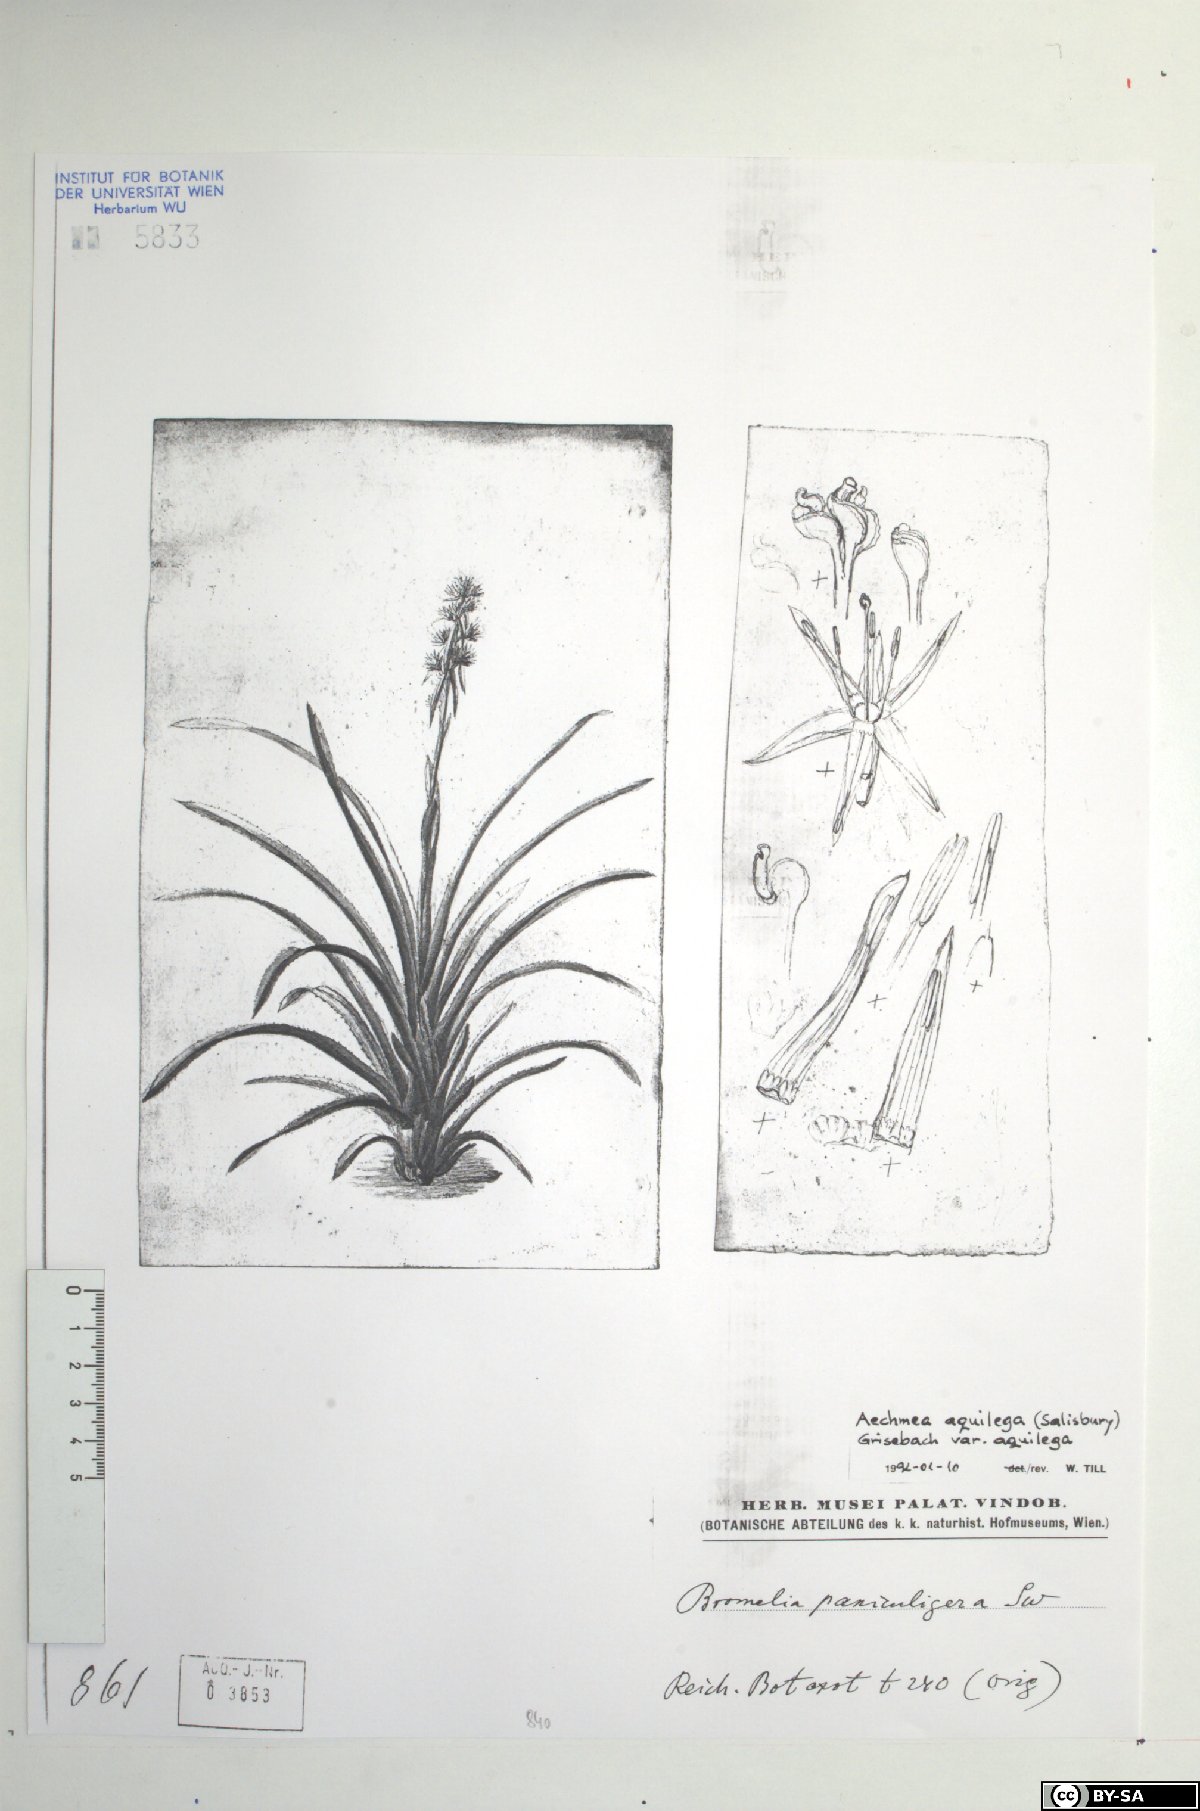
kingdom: Plantae
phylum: Tracheophyta
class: Liliopsida
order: Poales
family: Bromeliaceae
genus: Aechmea
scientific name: Aechmea aquilega
